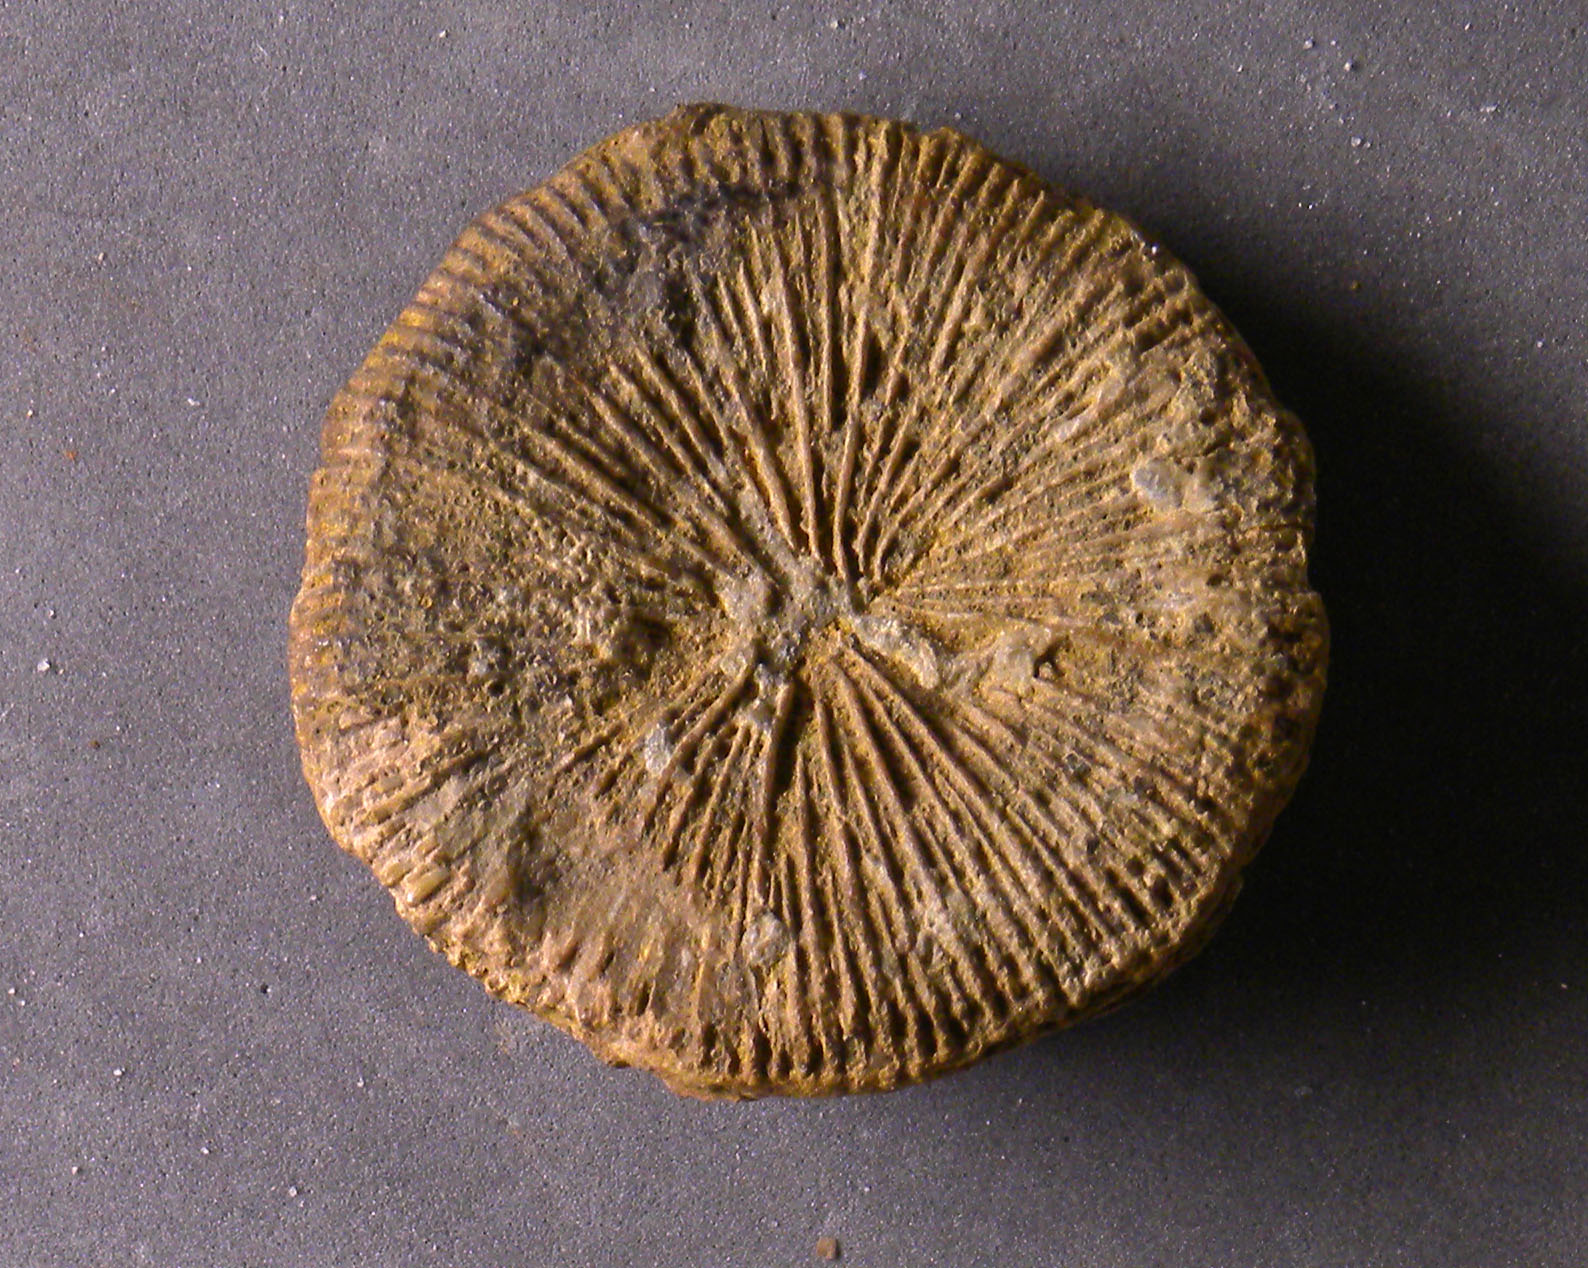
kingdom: Animalia
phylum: Cnidaria
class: Anthozoa
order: Scleractinia
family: Thecosmiliidae
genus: Montlivaltia
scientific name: Montlivaltia
